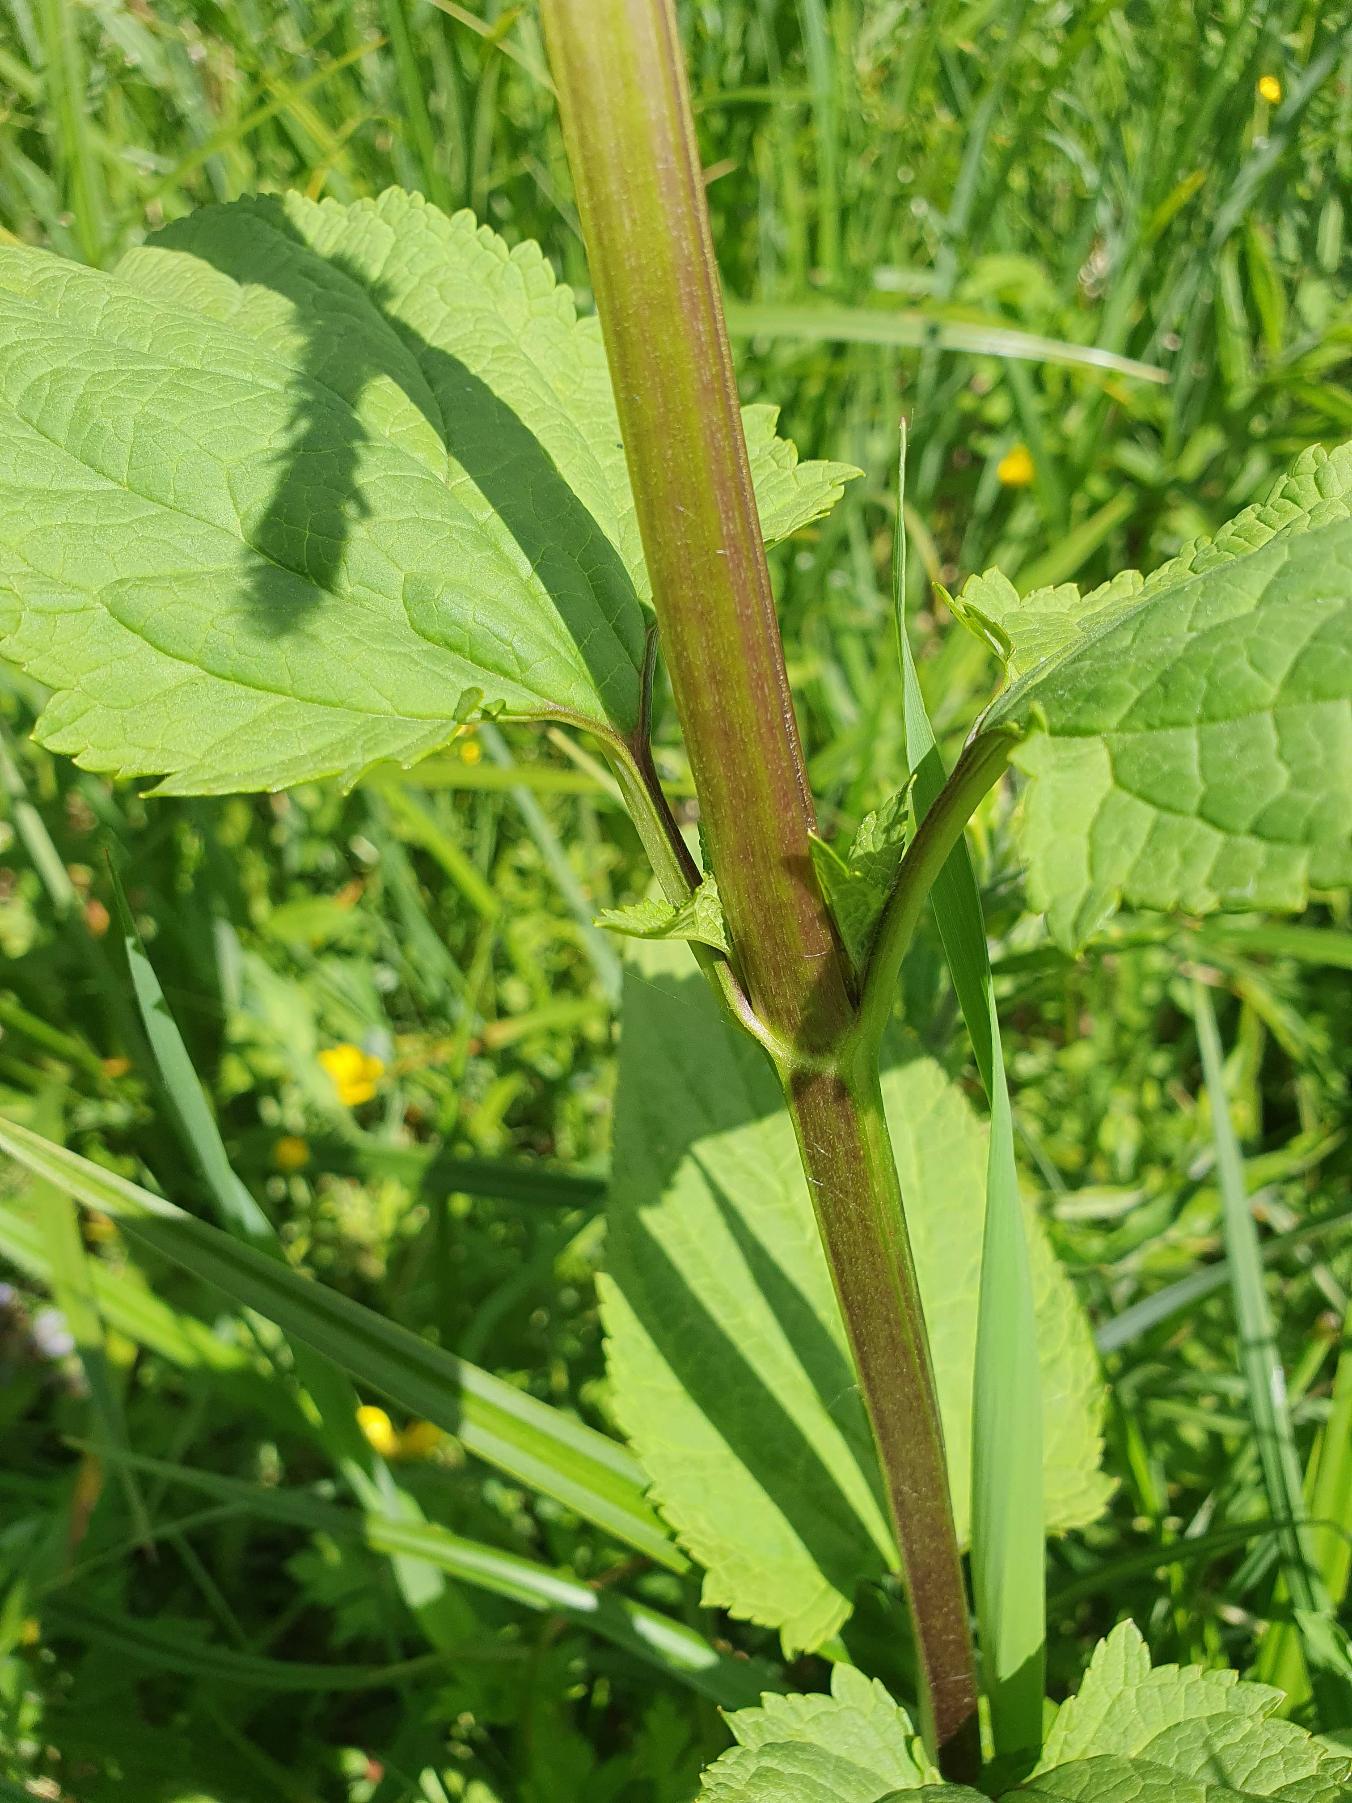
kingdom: Plantae
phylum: Tracheophyta
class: Magnoliopsida
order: Lamiales
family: Scrophulariaceae
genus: Scrophularia
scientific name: Scrophularia nodosa
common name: Knoldet brunrod
